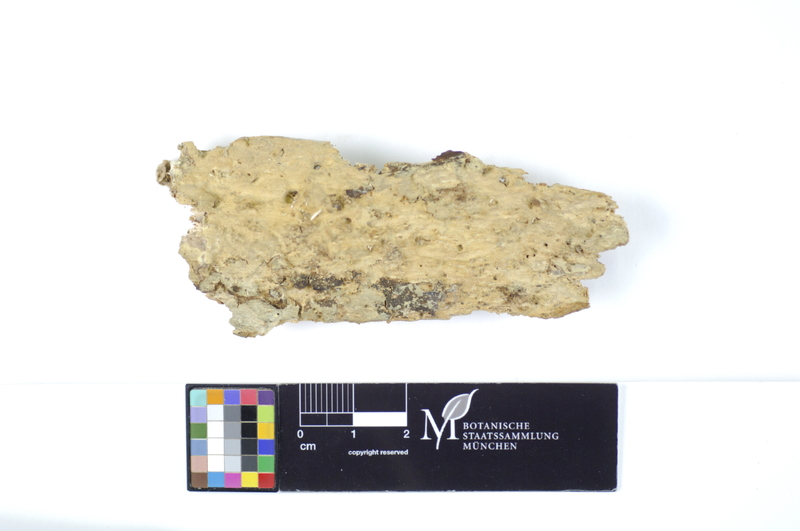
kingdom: Fungi
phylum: Basidiomycota
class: Agaricomycetes
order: Hymenochaetales
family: Rickenellaceae
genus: Peniophorella
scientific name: Peniophorella pubera
